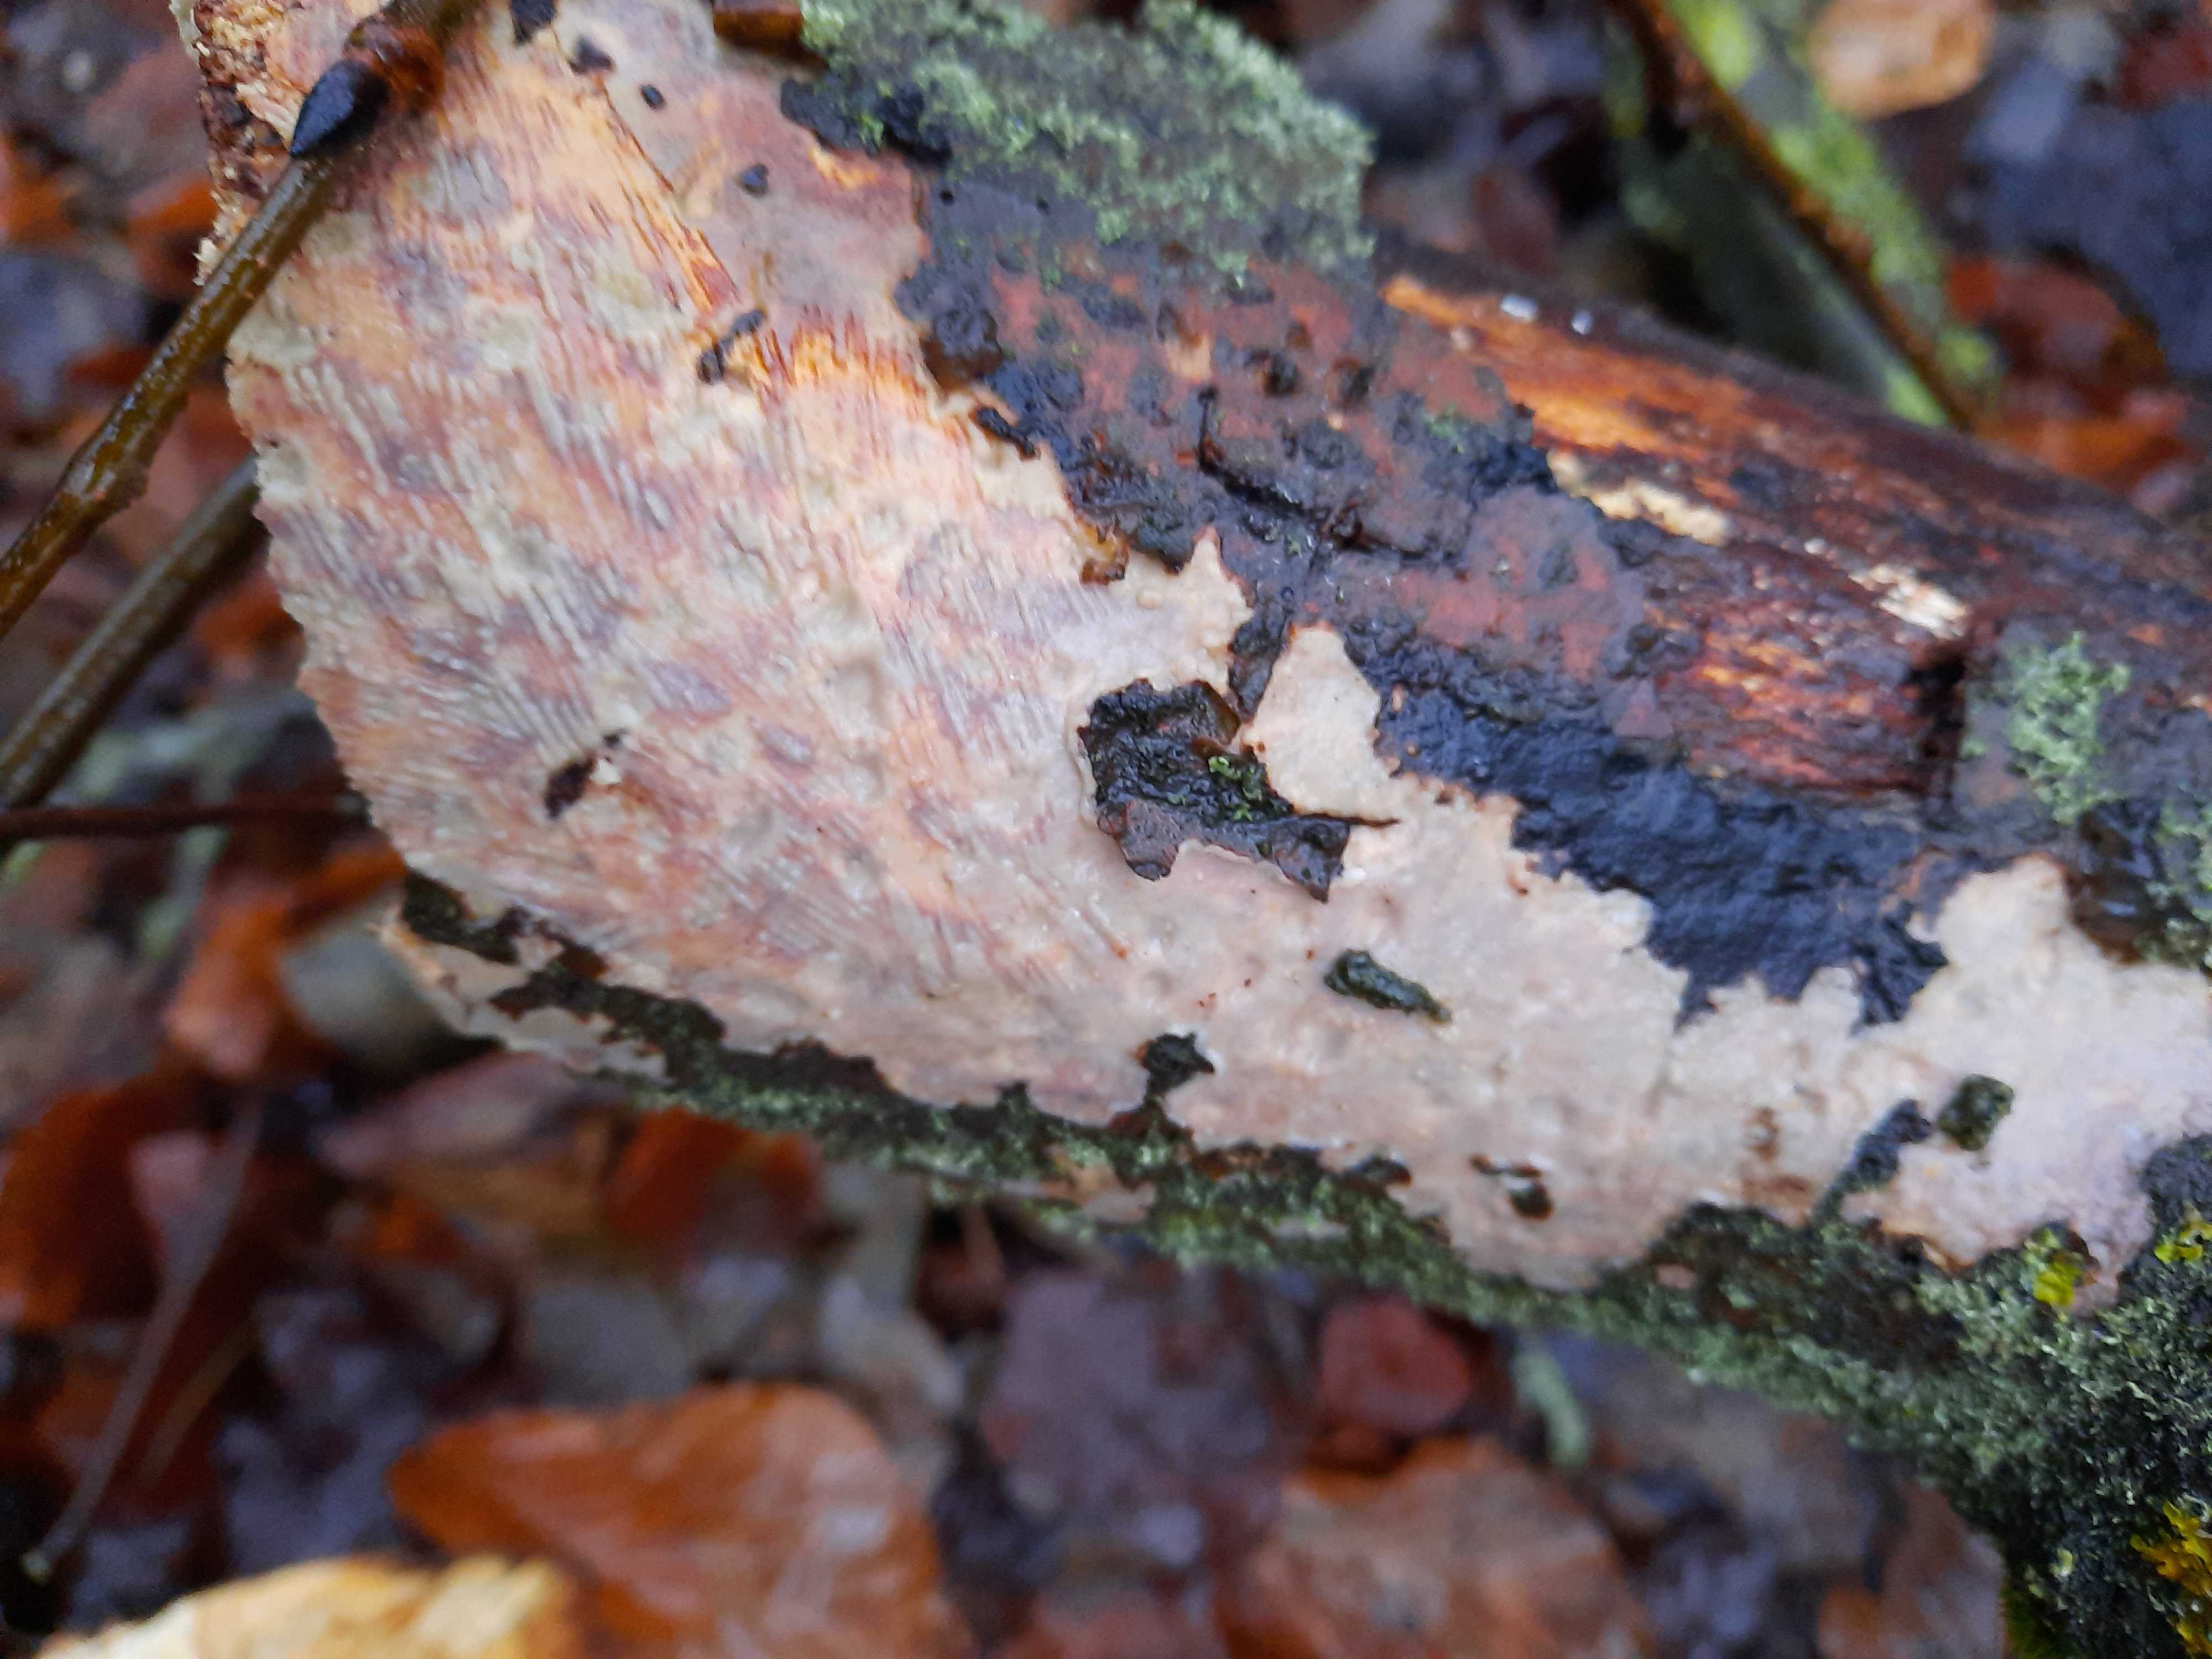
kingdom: Fungi
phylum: Basidiomycota
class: Agaricomycetes
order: Corticiales
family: Vuilleminiaceae
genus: Vuilleminia
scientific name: Vuilleminia comedens
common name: almindelig barksprænger
